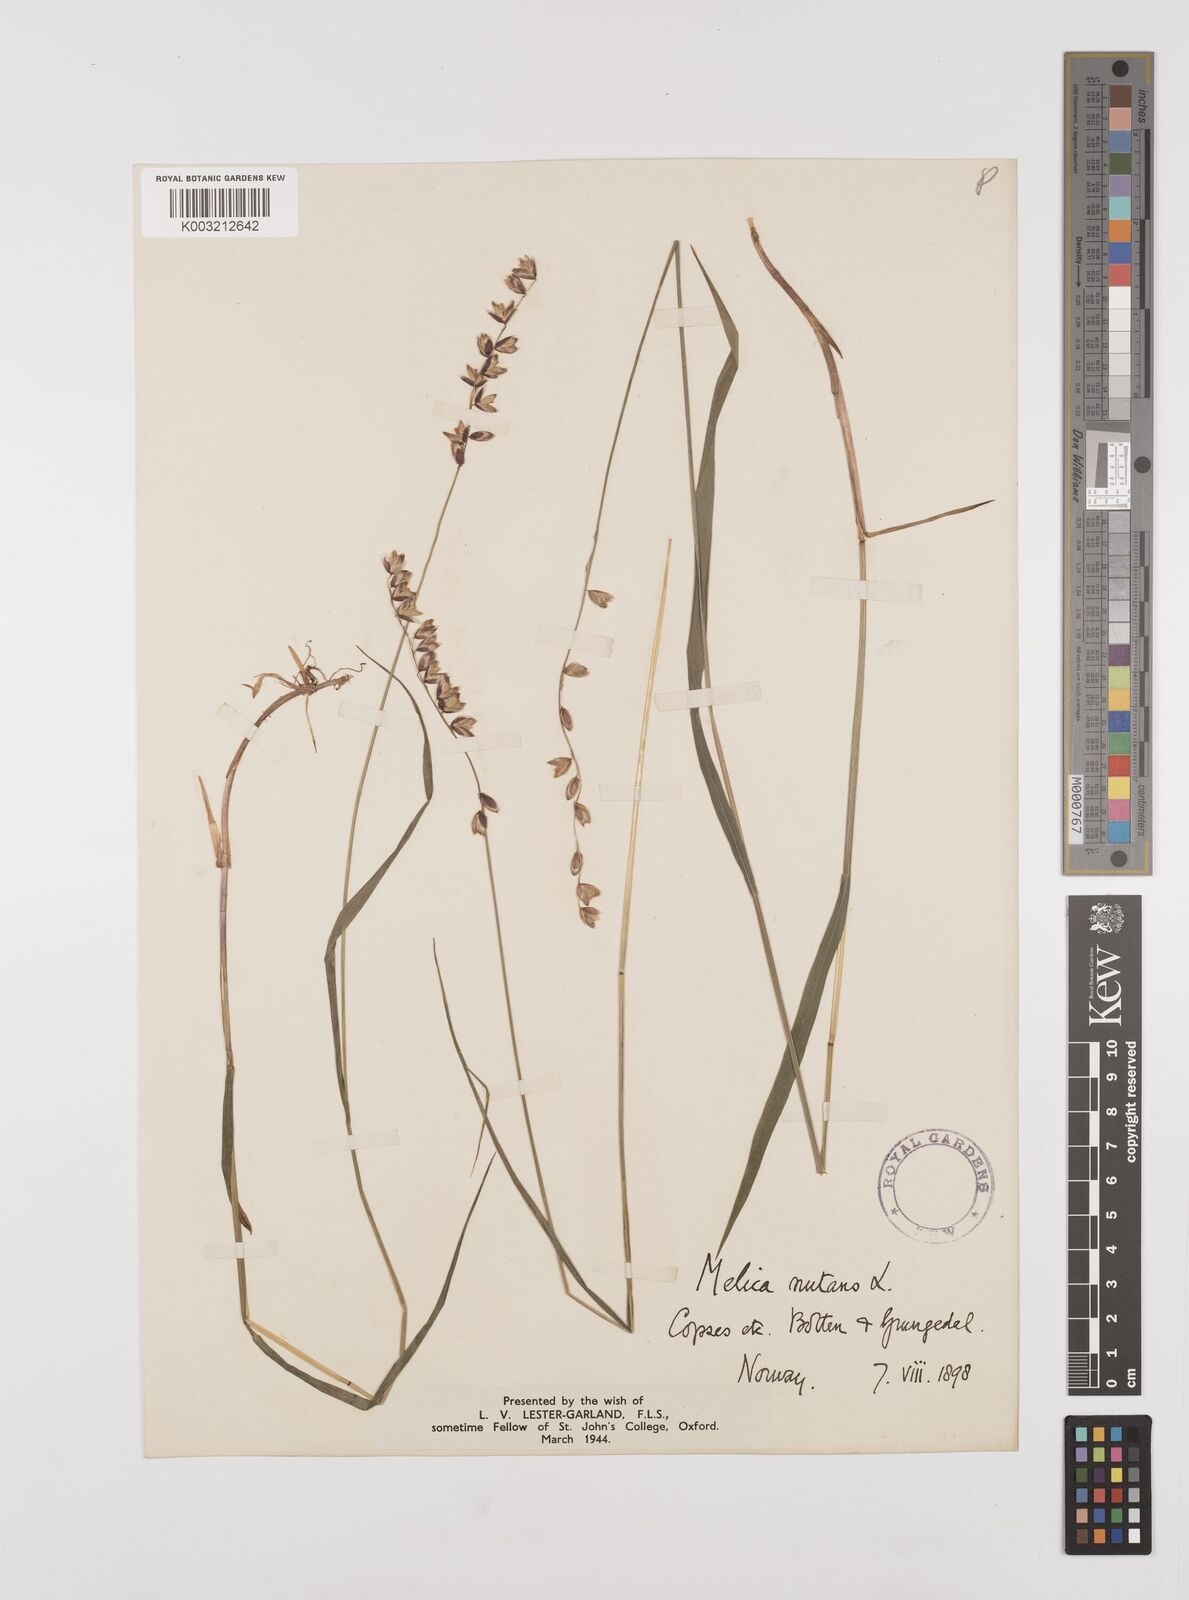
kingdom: Plantae
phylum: Tracheophyta
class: Liliopsida
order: Poales
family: Poaceae
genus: Melica
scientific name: Melica
